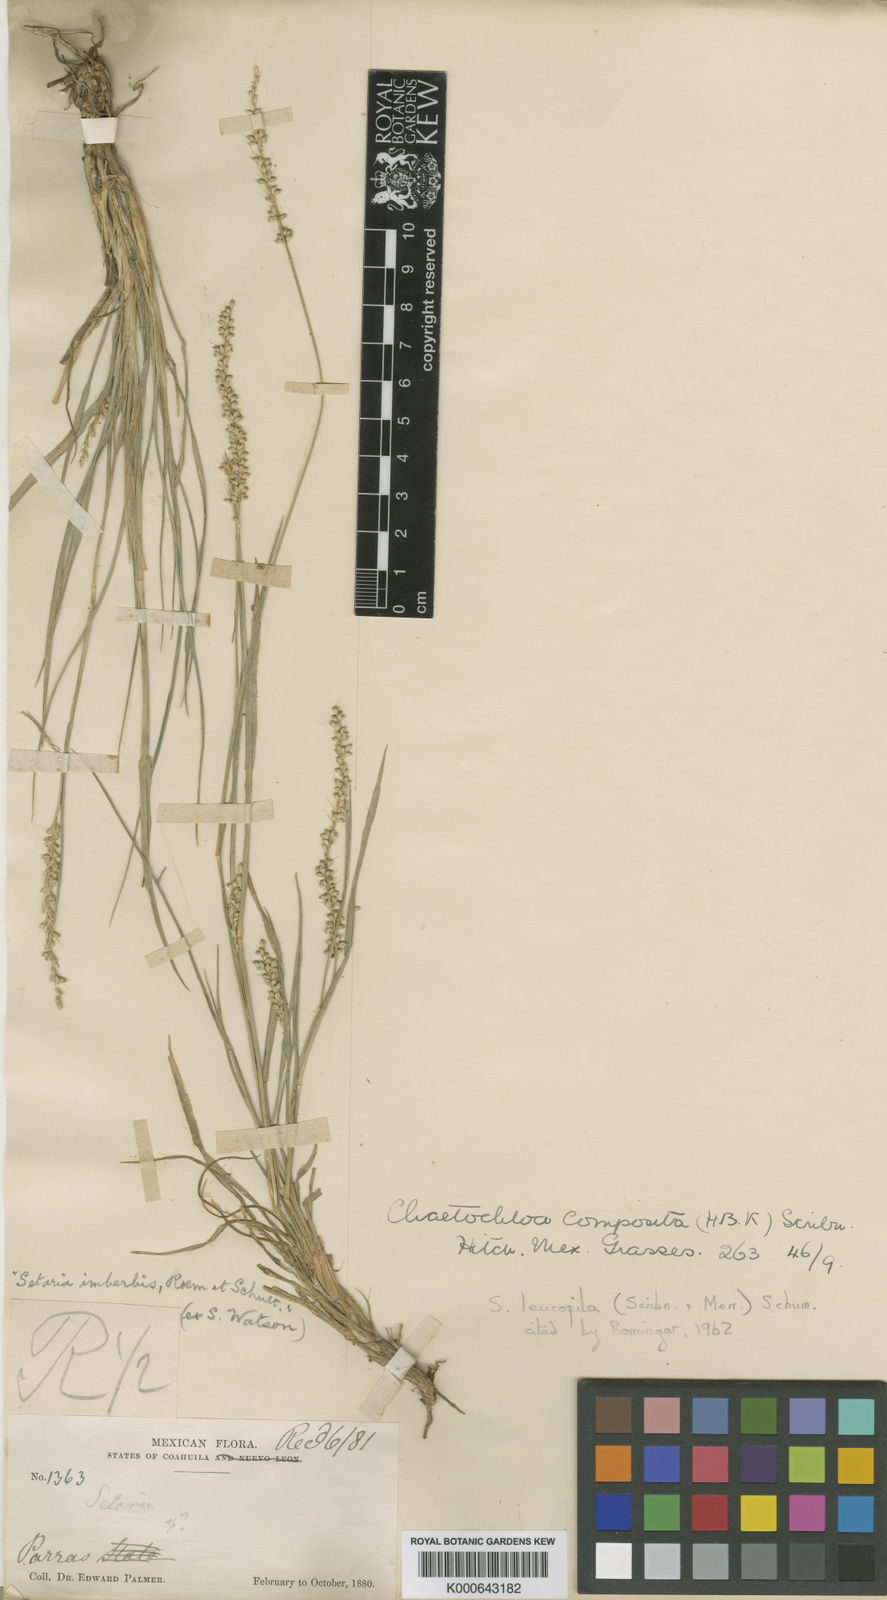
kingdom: Plantae
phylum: Tracheophyta
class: Liliopsida
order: Poales
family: Poaceae
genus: Setaria
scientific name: Setaria leucopila
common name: Plains bristle grass
